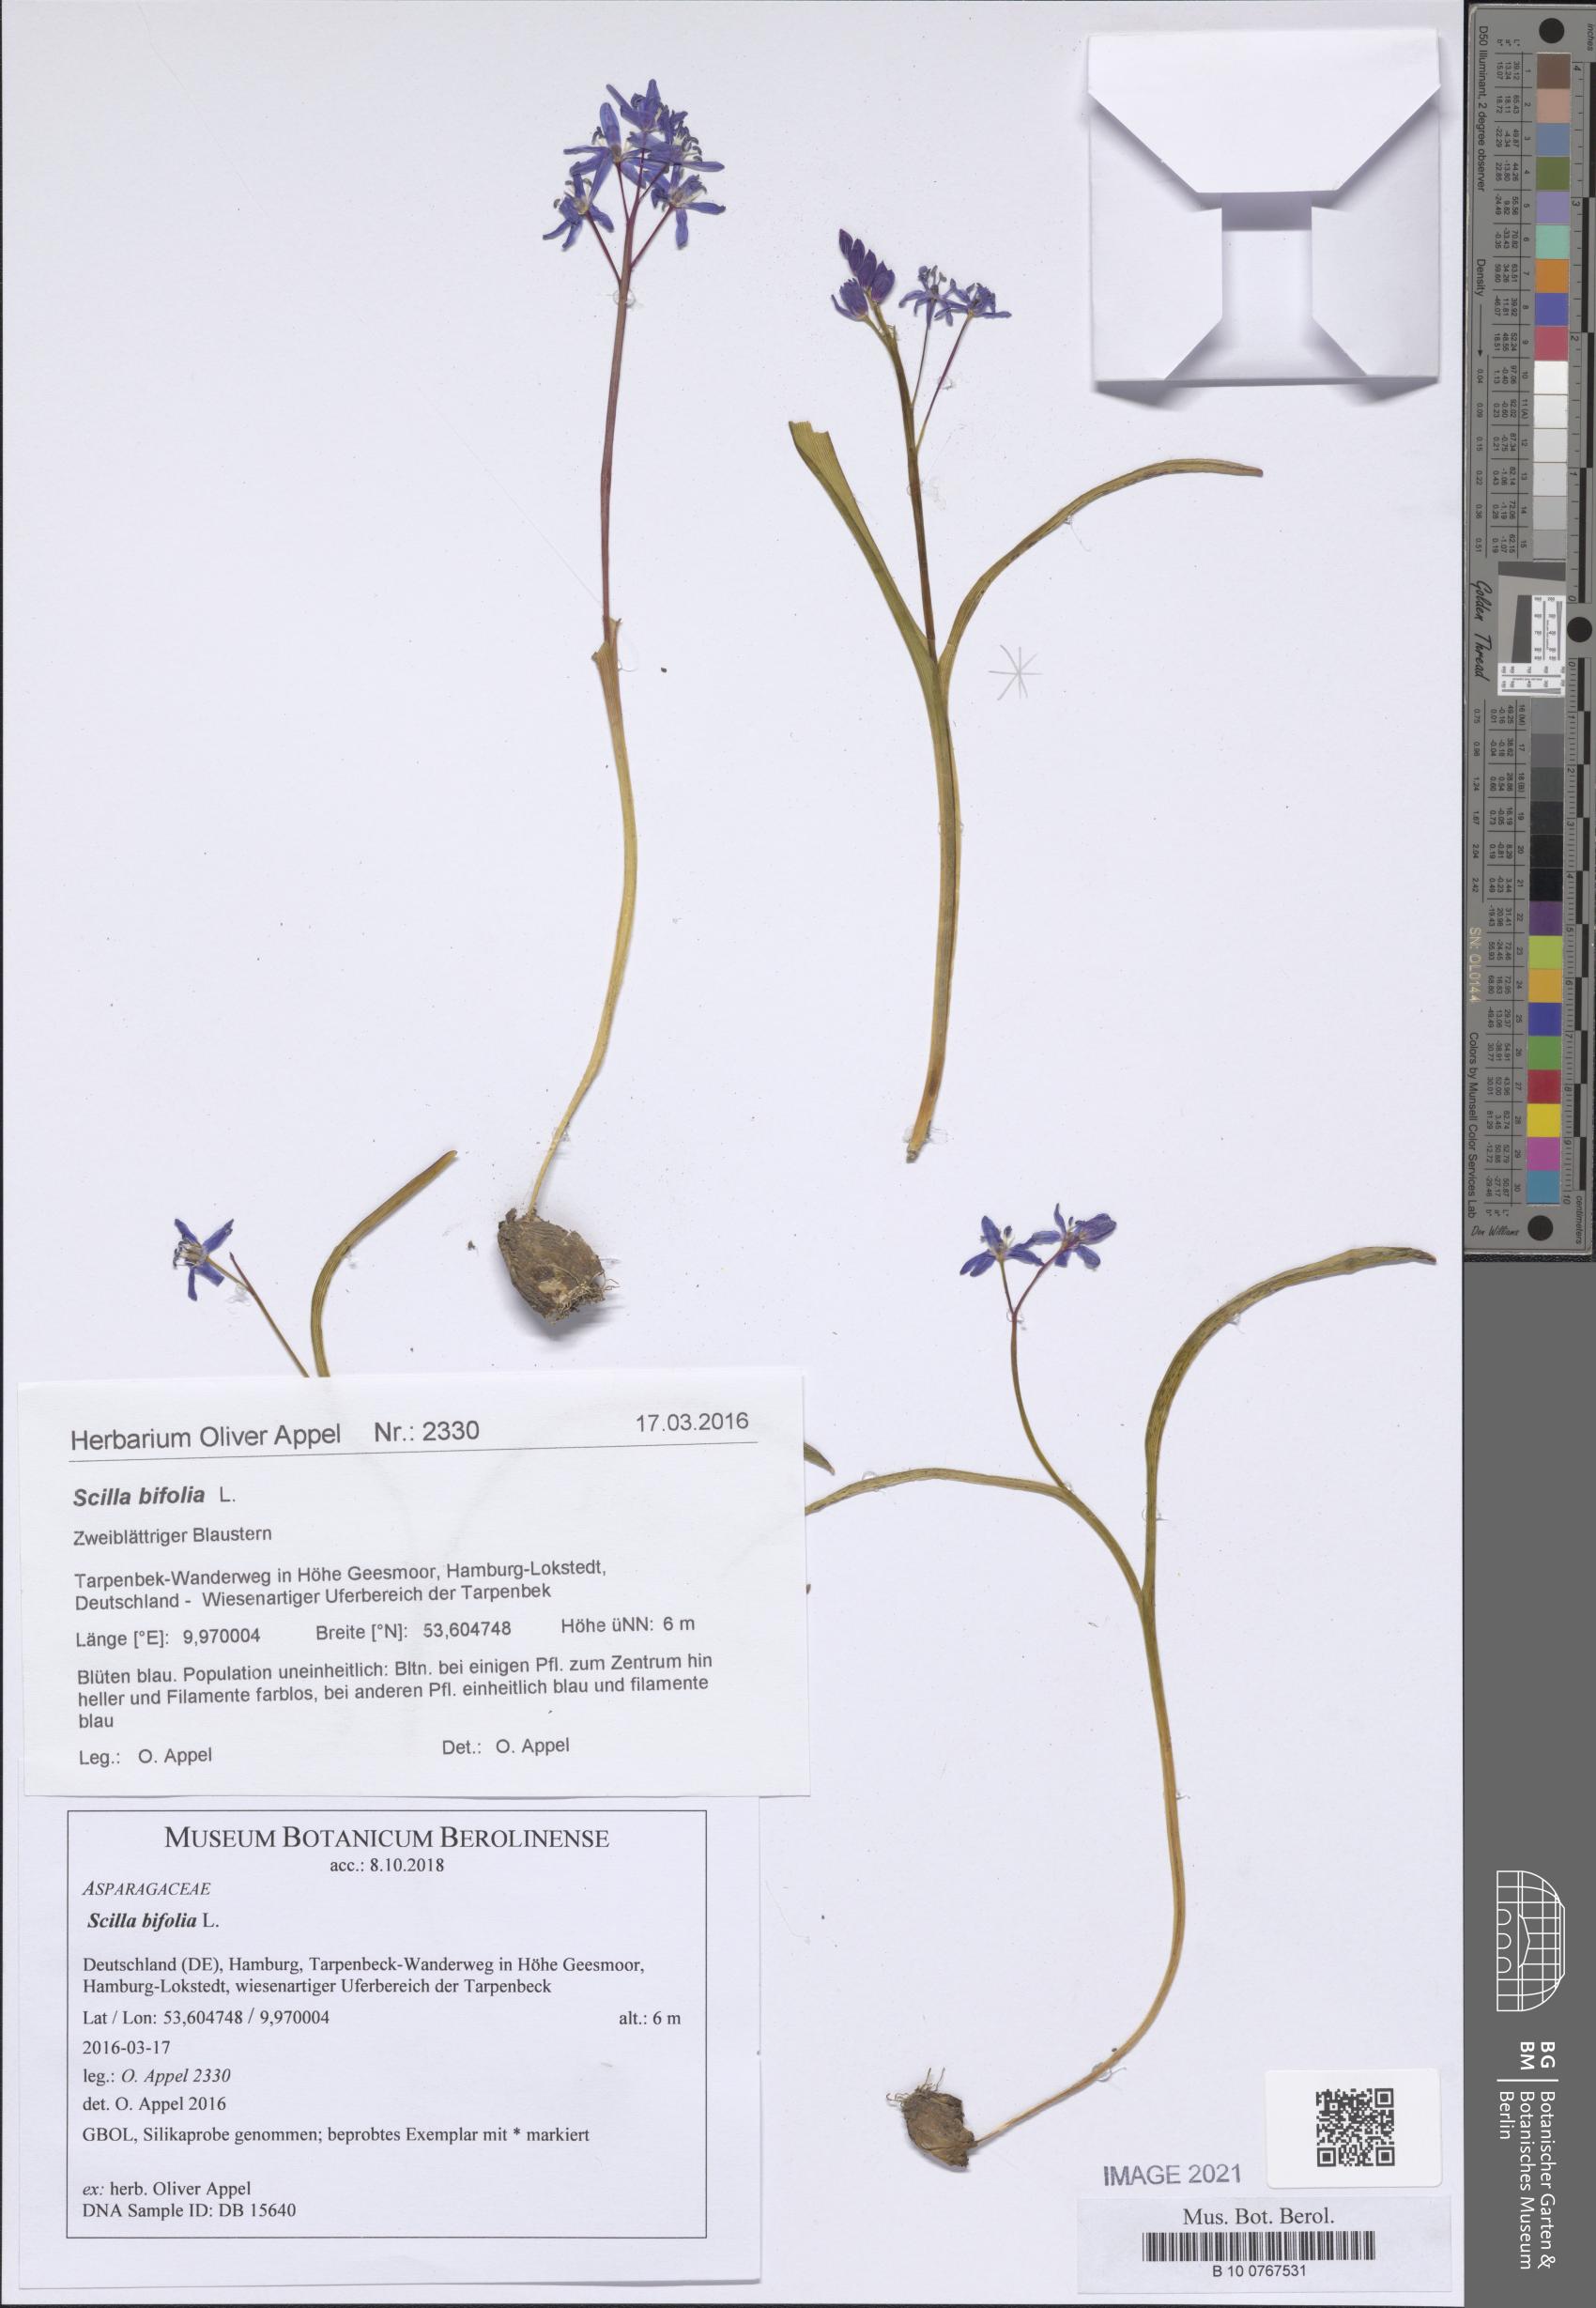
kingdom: Plantae
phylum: Tracheophyta
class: Liliopsida
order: Asparagales
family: Asparagaceae
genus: Scilla
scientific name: Scilla bifolia
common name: Alpine squill
